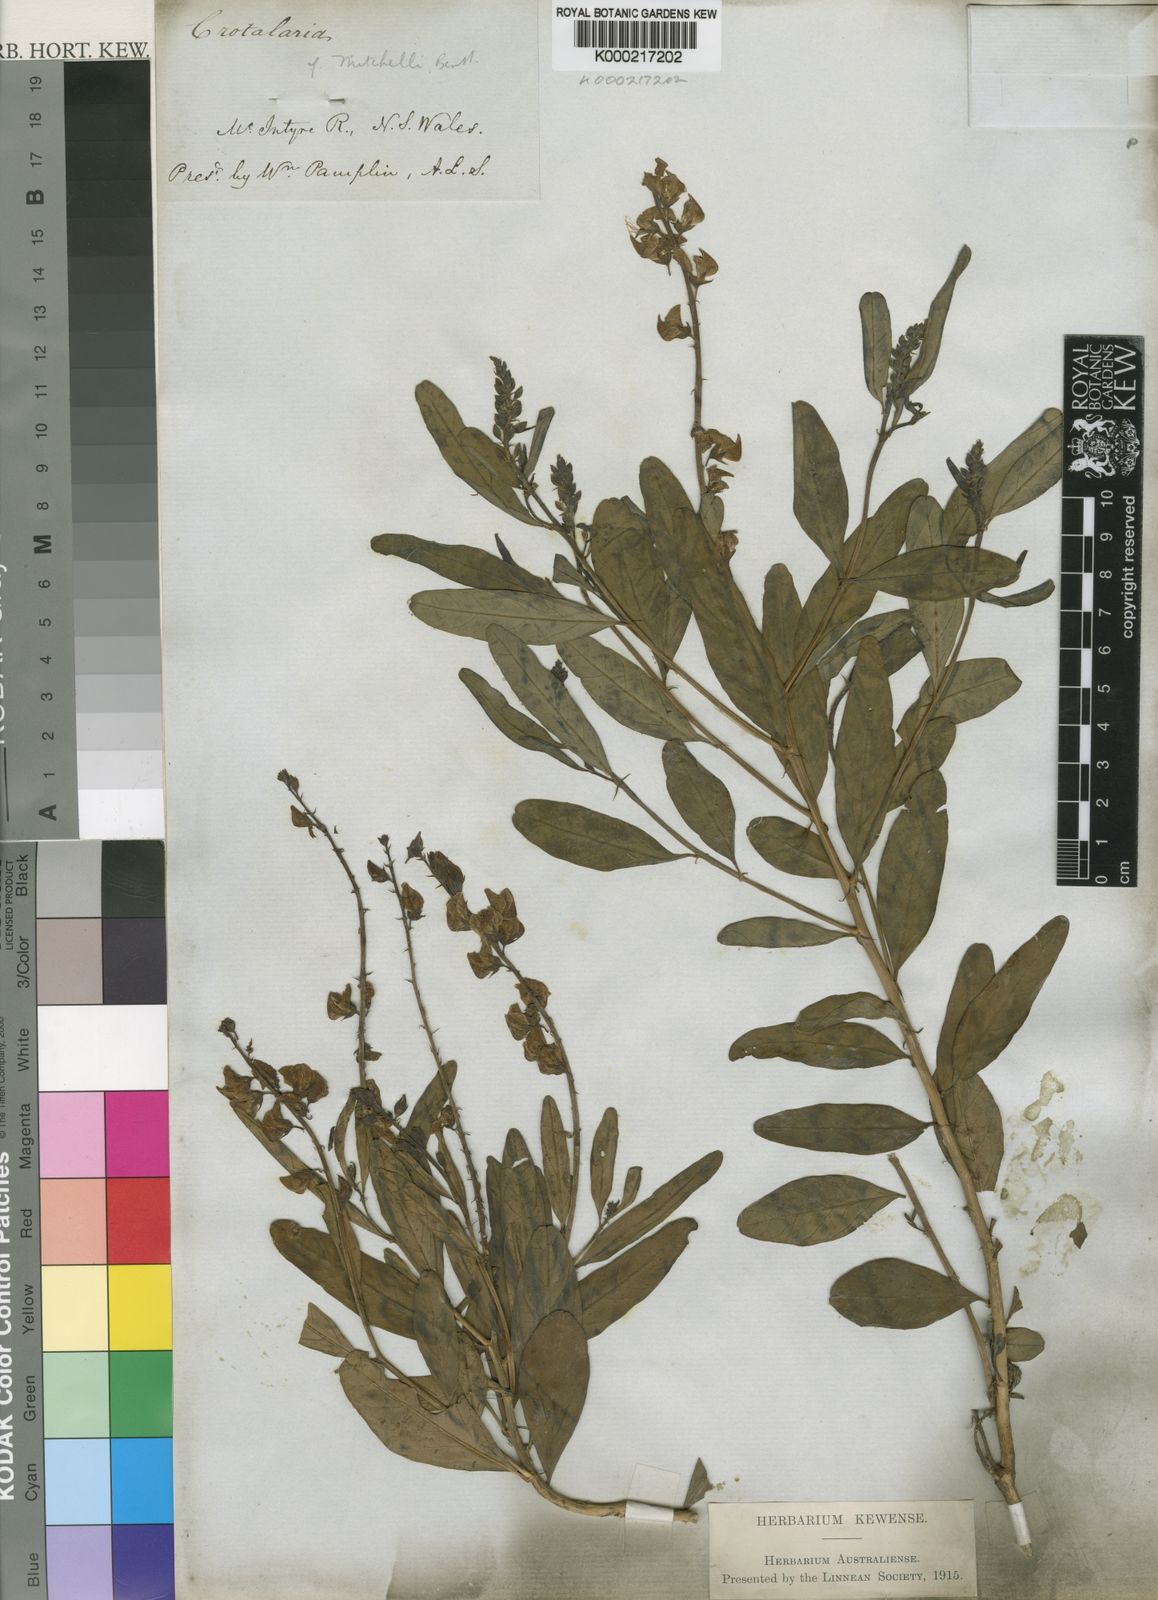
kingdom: Plantae
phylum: Tracheophyta
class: Magnoliopsida
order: Fabales
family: Fabaceae
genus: Crotalaria
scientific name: Crotalaria mitchellii
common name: Yellow rattlepod
